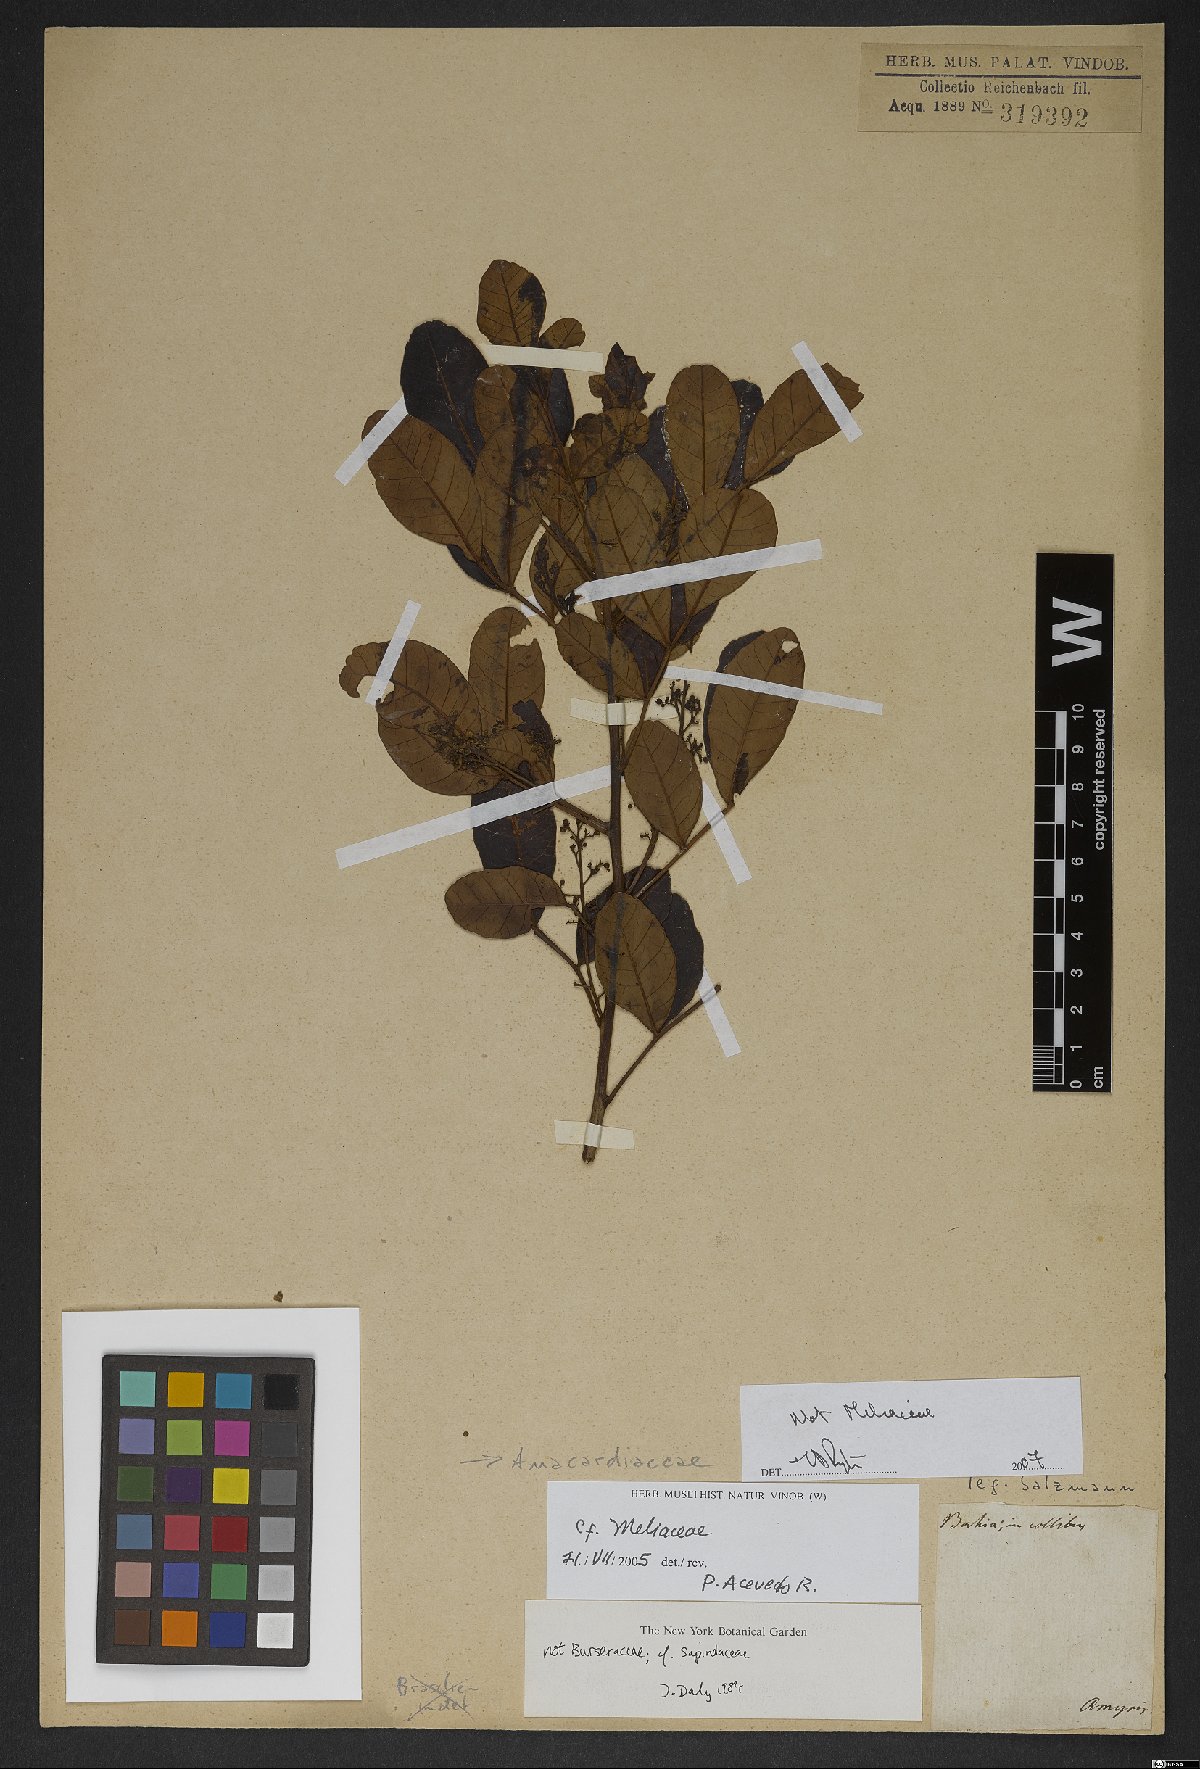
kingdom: Plantae
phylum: Tracheophyta
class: Magnoliopsida
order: Sapindales
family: Anacardiaceae
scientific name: Anacardiaceae
